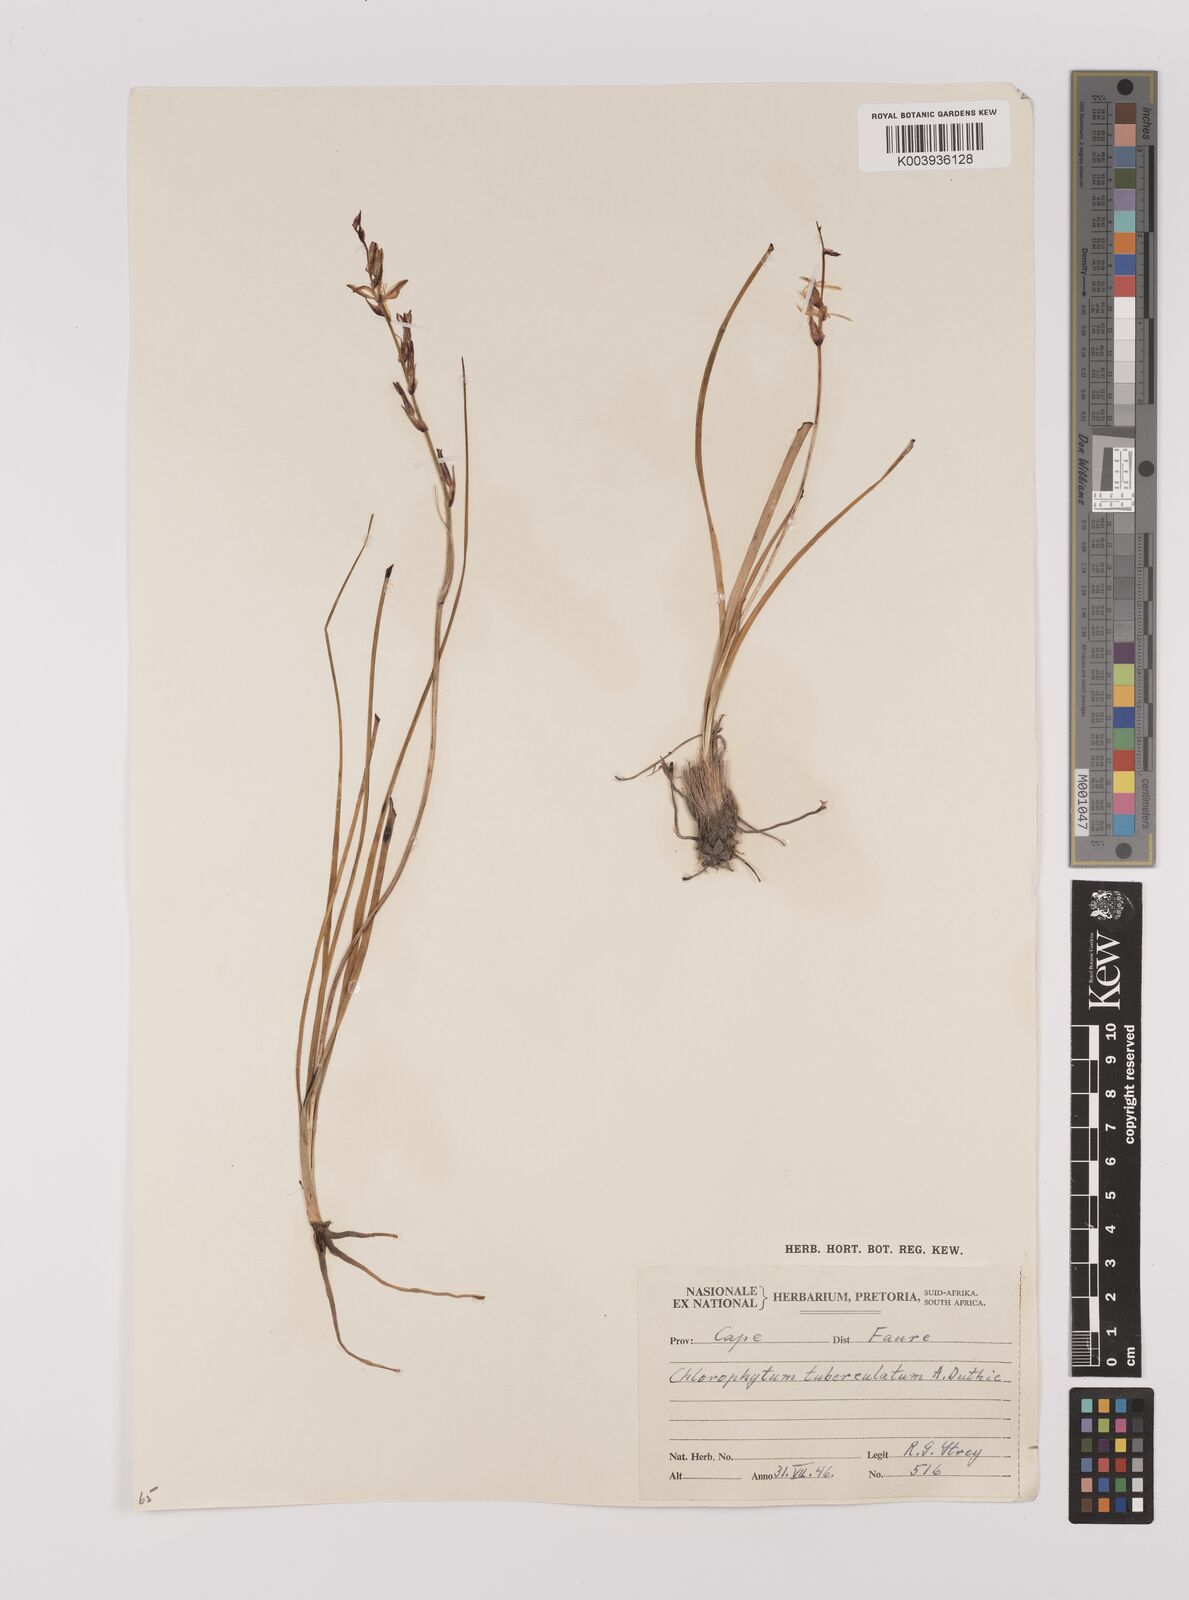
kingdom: Plantae
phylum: Tracheophyta
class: Liliopsida
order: Asparagales
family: Asparagaceae
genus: Chlorophytum
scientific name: Chlorophytum graminifolium
